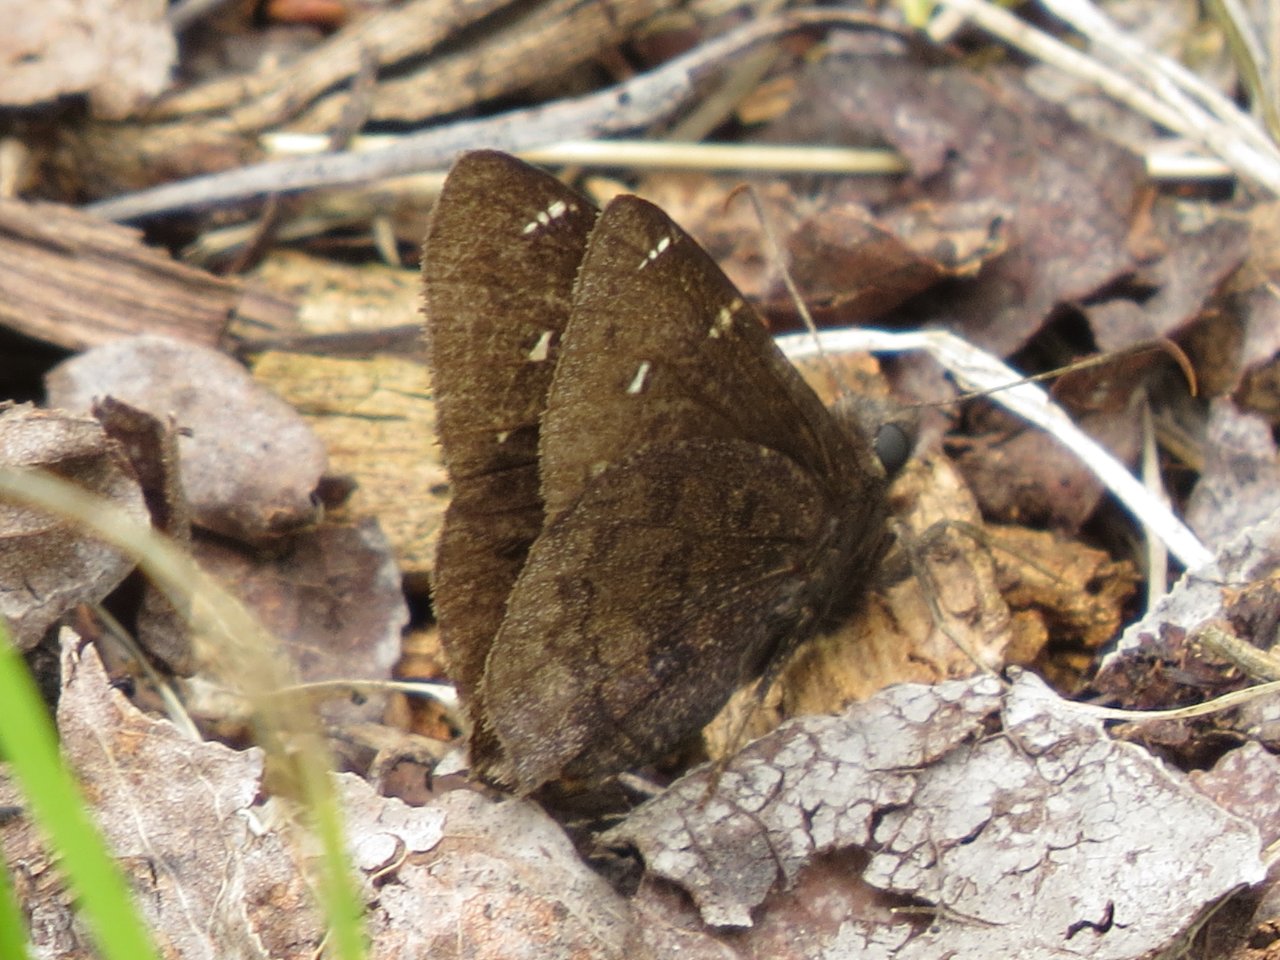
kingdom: Animalia
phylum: Arthropoda
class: Insecta
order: Lepidoptera
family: Hesperiidae
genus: Autochton
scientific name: Autochton
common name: Northern Cloudywing
